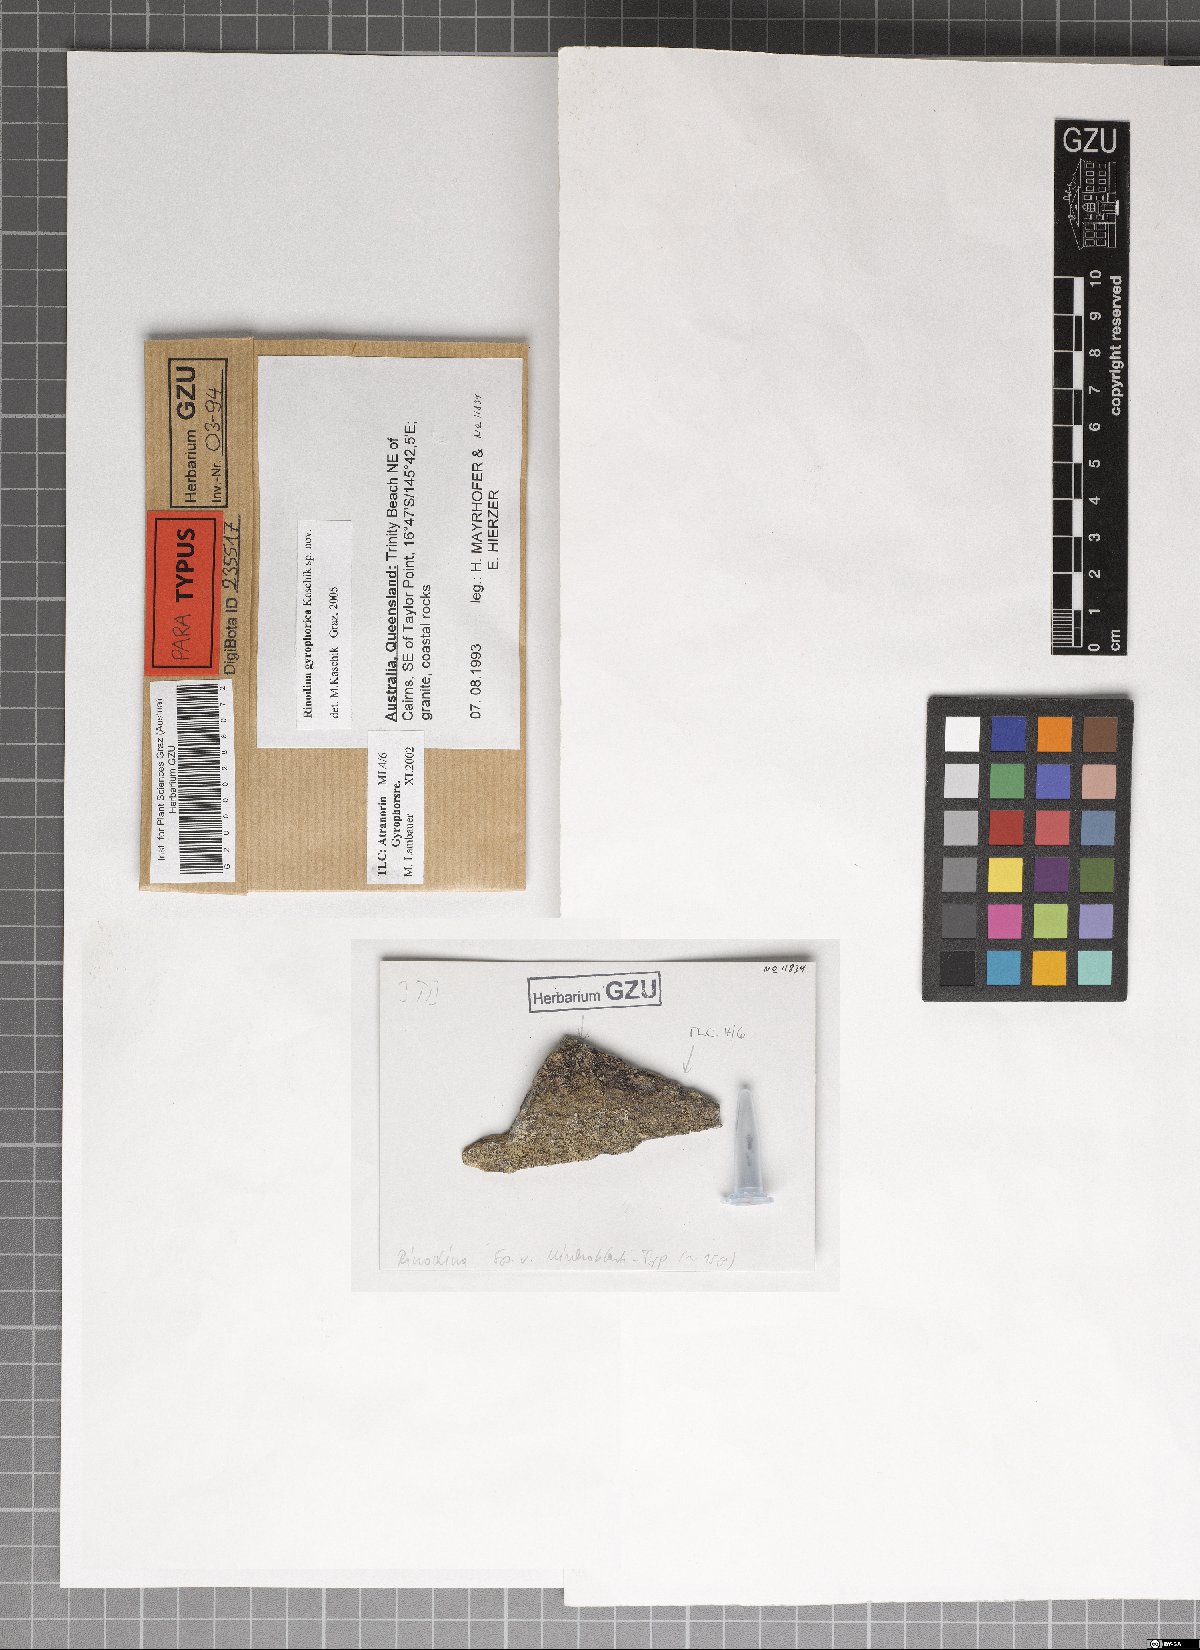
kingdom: Fungi
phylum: Ascomycota
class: Lecanoromycetes
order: Caliciales
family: Physciaceae
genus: Rinodina
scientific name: Rinodina gyrophorica
